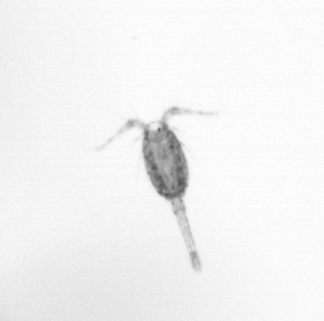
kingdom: Animalia
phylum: Arthropoda
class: Copepoda
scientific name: Copepoda
